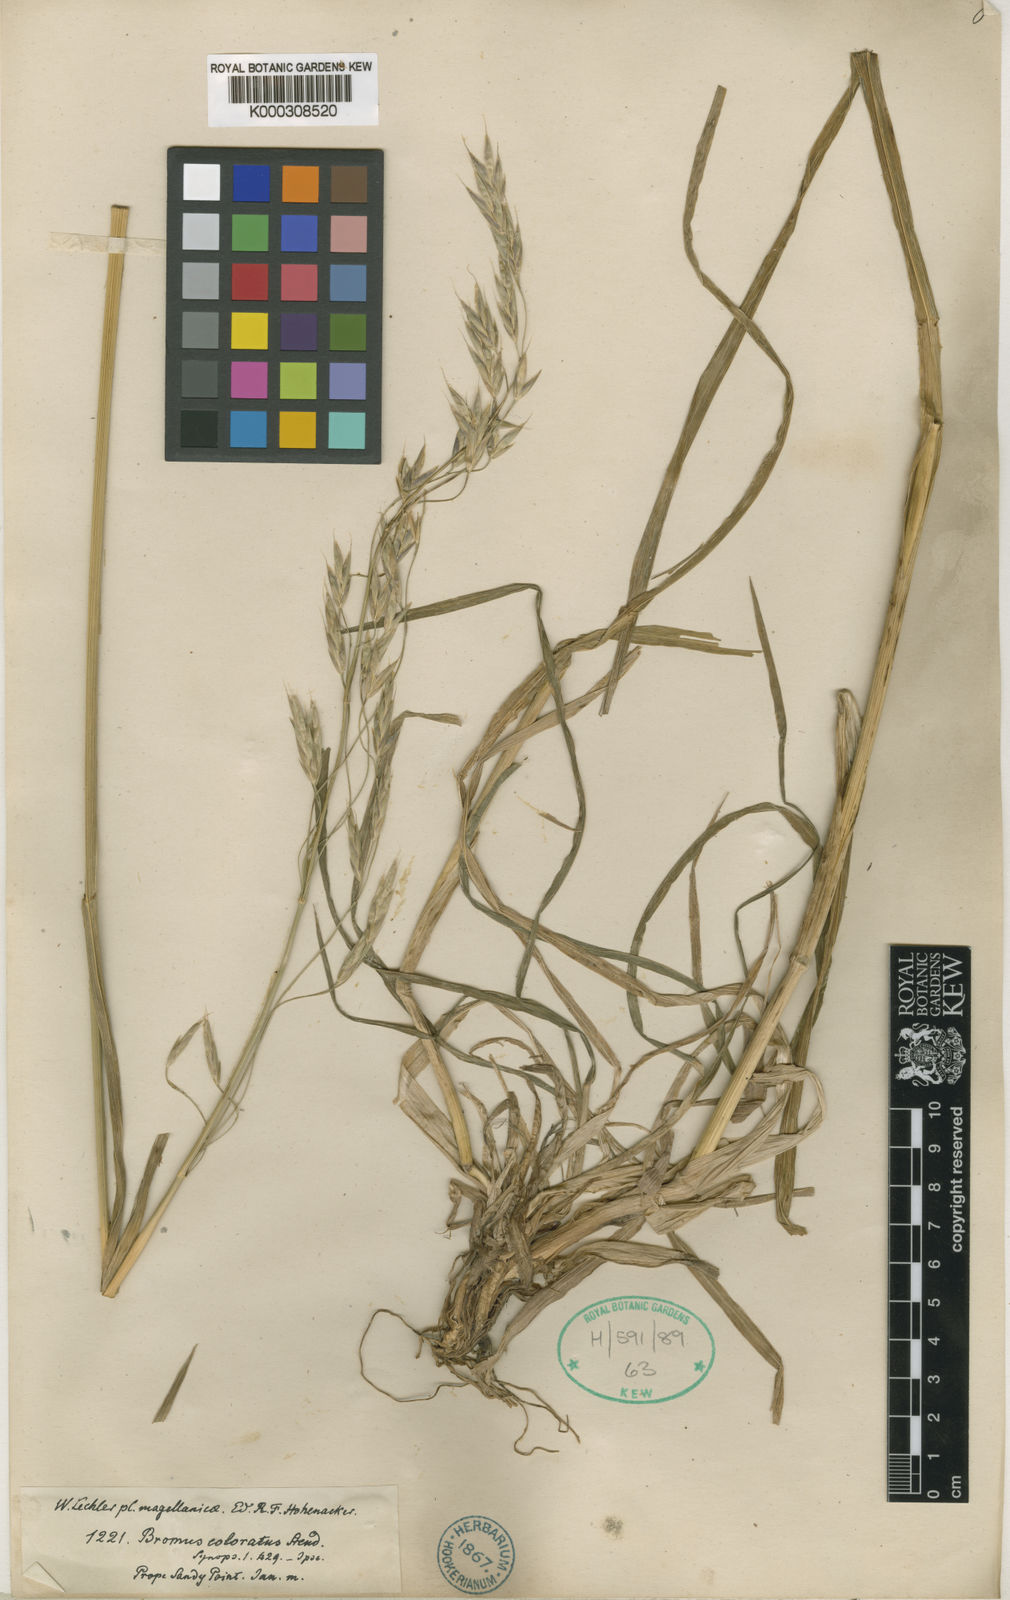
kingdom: Plantae
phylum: Tracheophyta
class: Liliopsida
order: Poales
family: Poaceae
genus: Bromus
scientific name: Bromus coloratus
